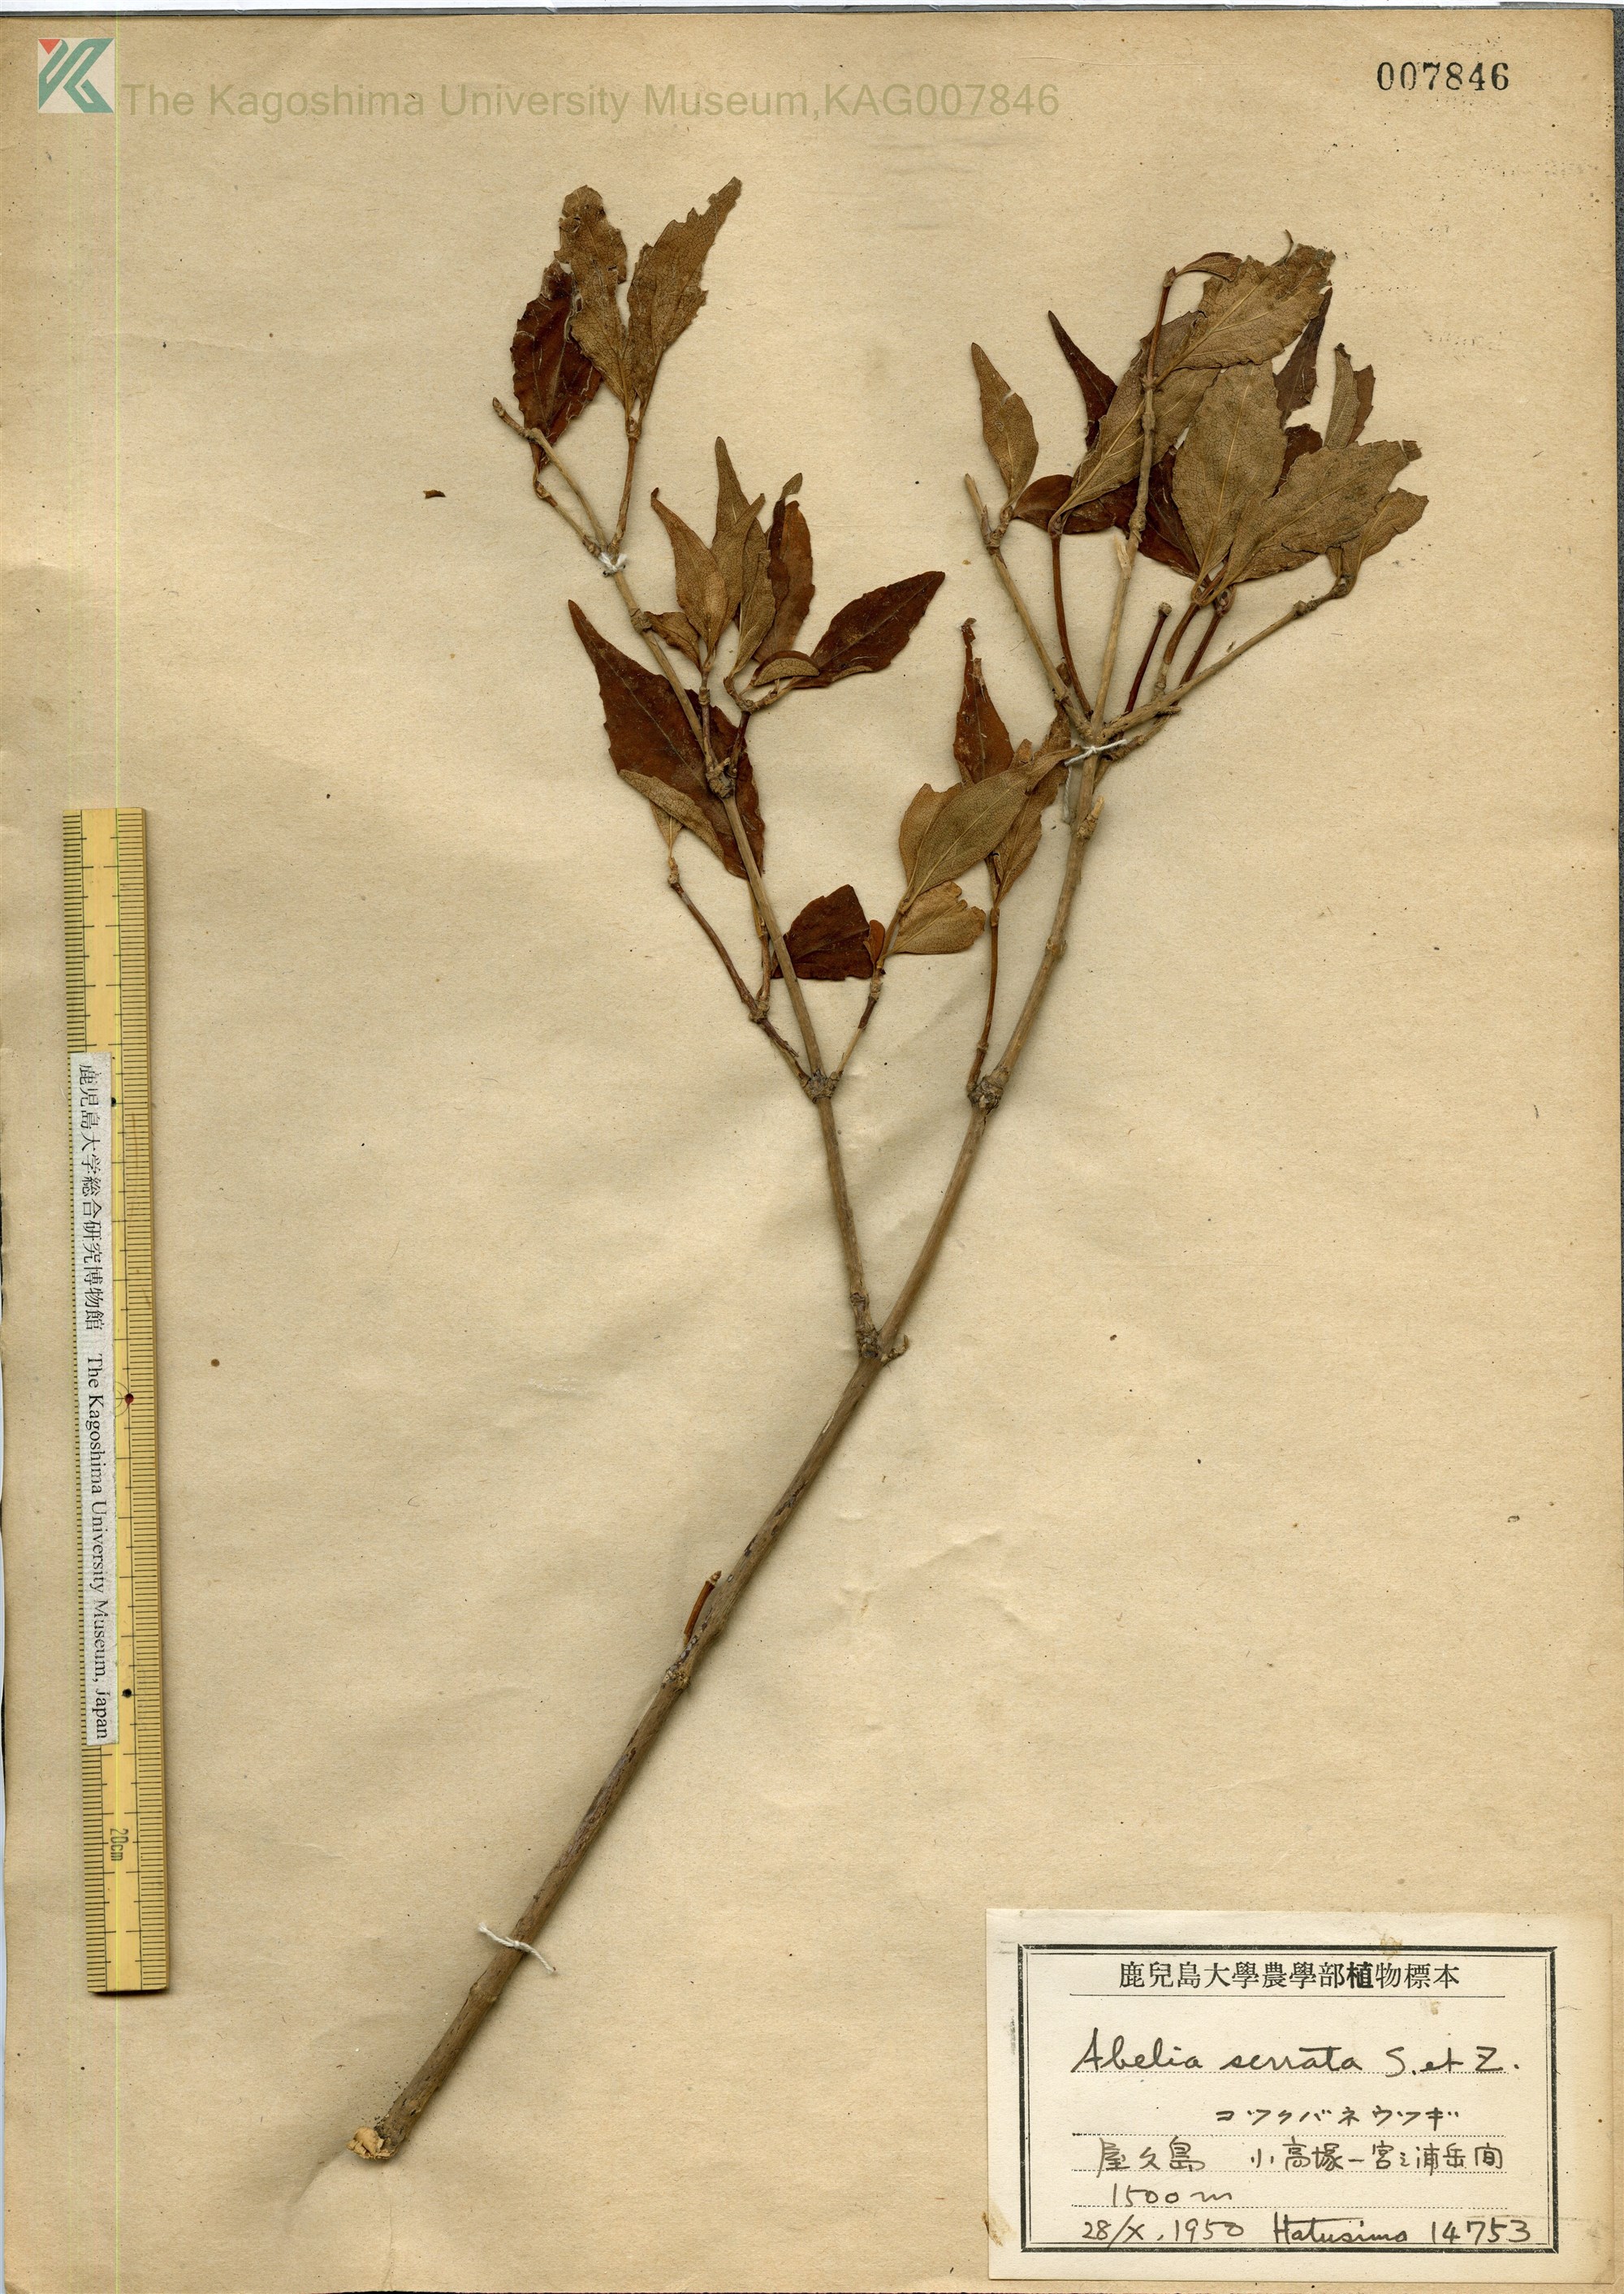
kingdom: Plantae
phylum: Tracheophyta
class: Magnoliopsida
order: Dipsacales
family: Caprifoliaceae
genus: Diabelia
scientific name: Diabelia serrata
